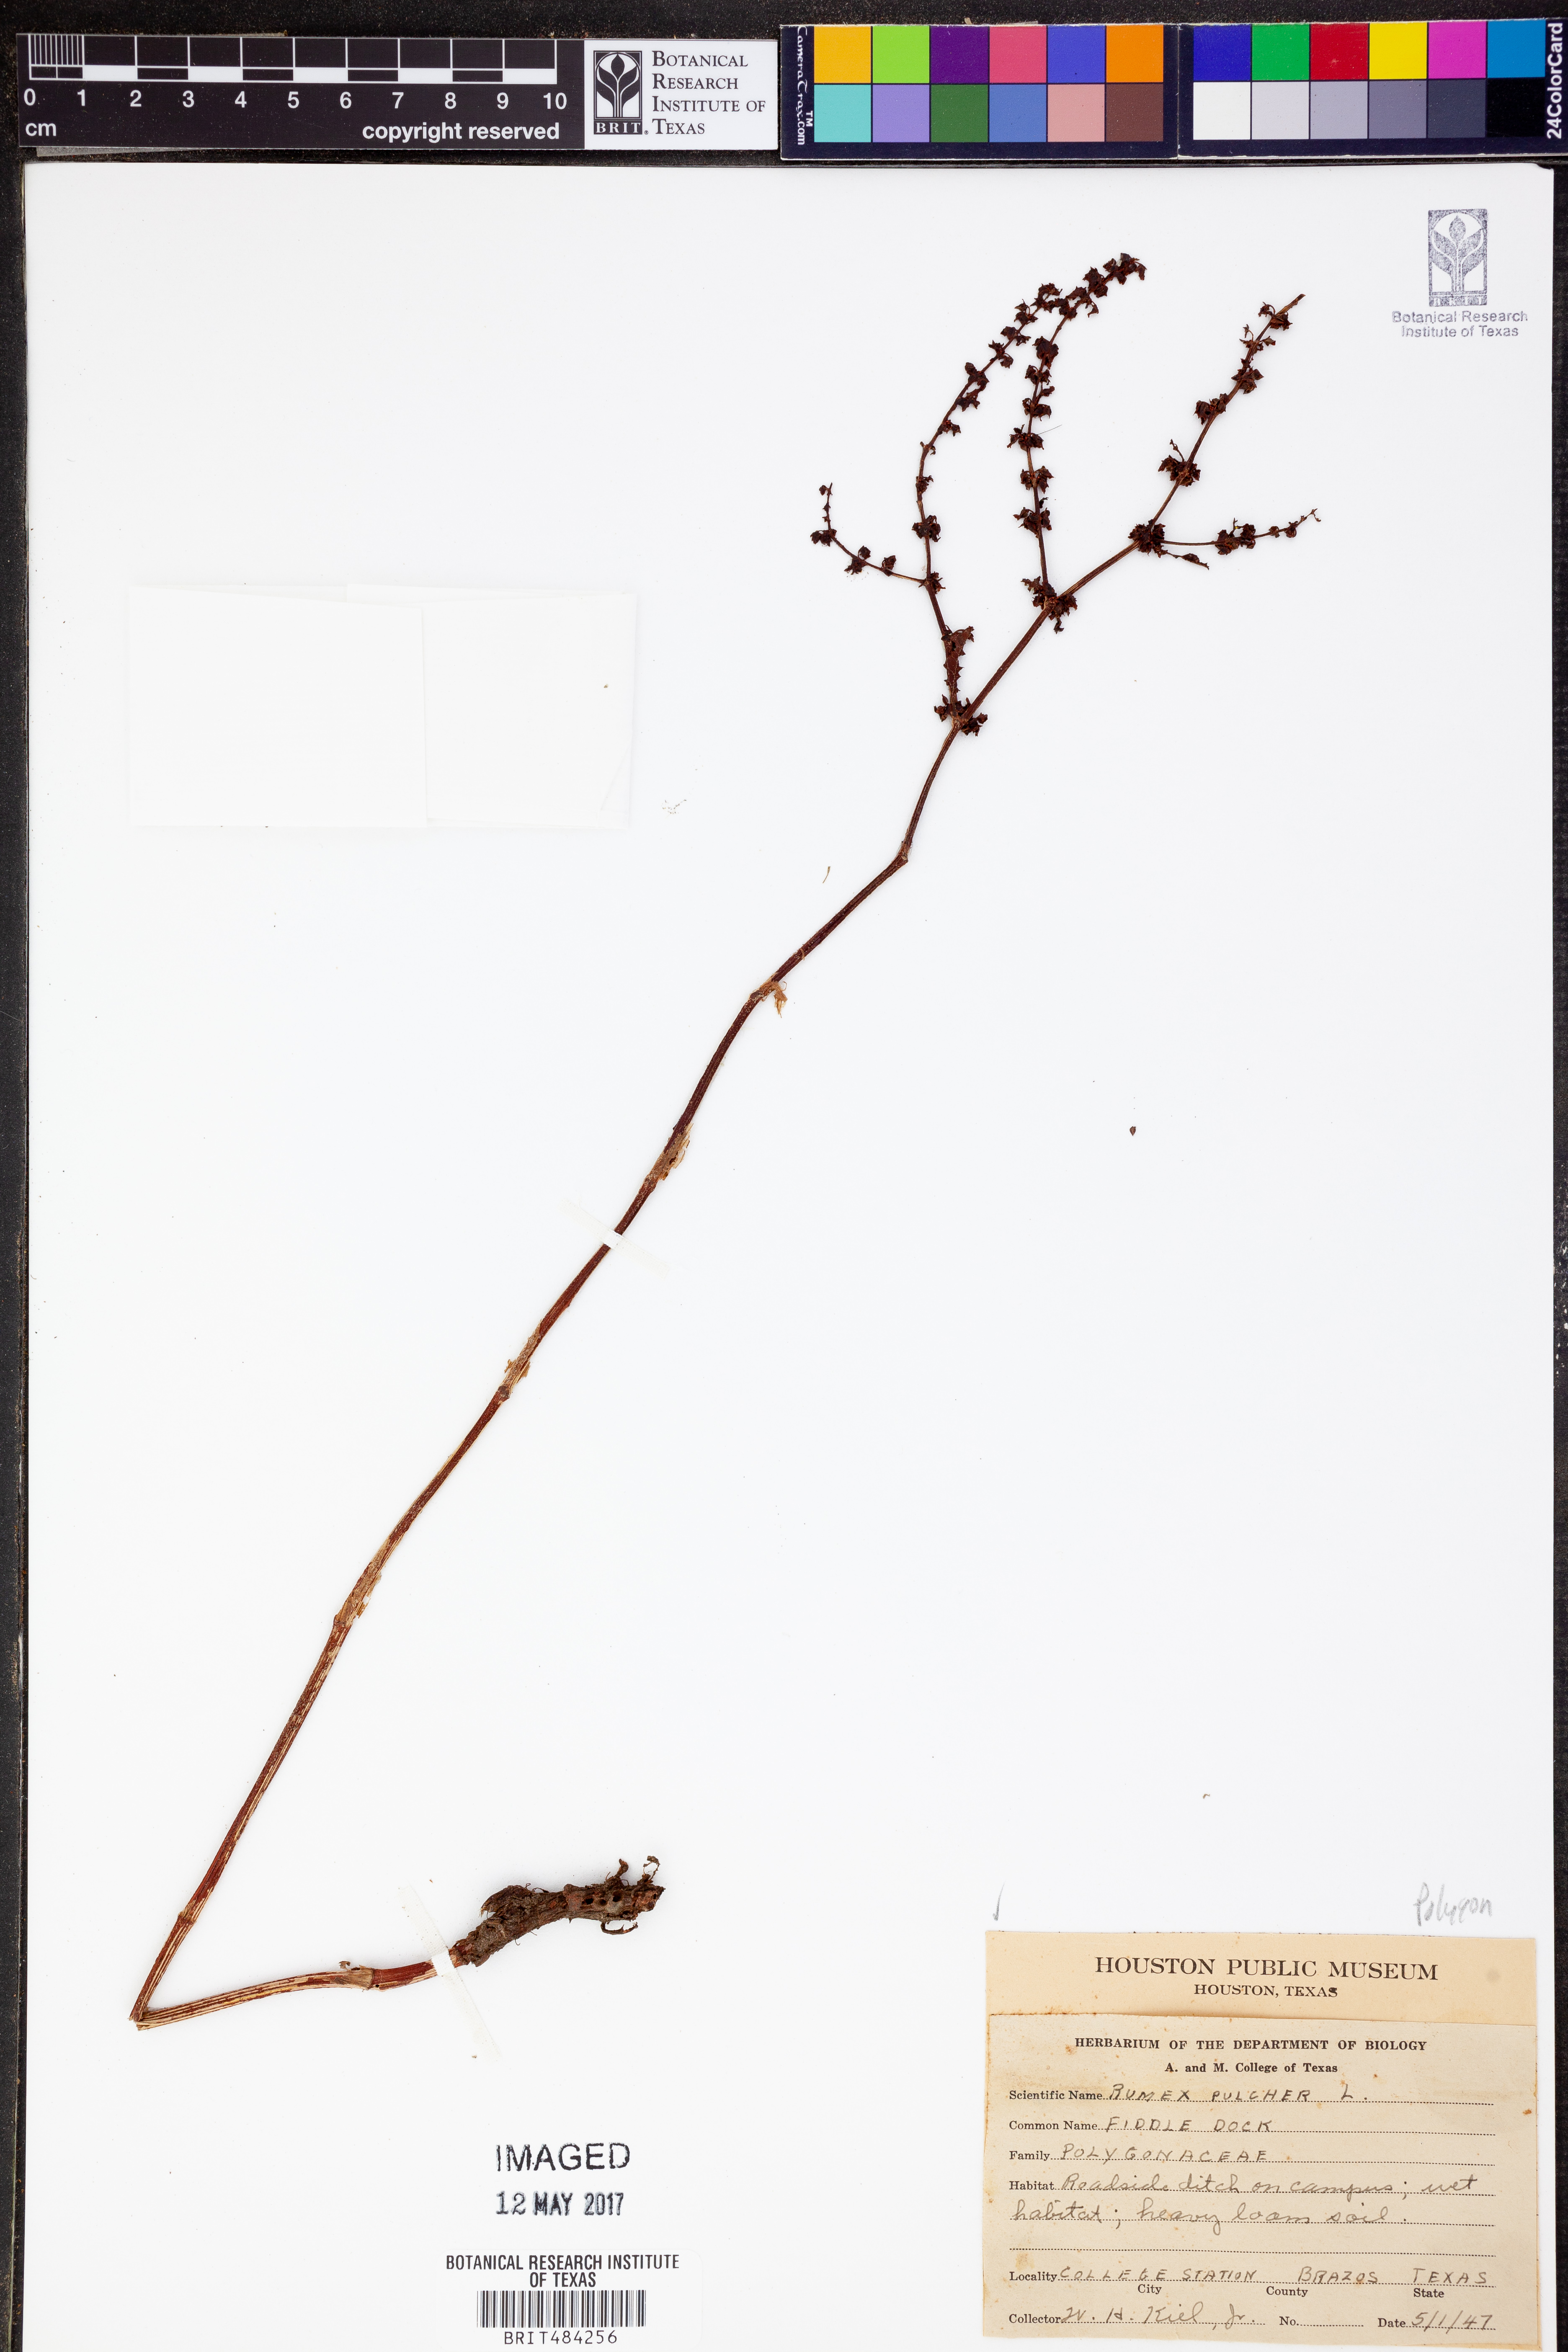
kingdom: Plantae
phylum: Tracheophyta
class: Magnoliopsida
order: Caryophyllales
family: Polygonaceae
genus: Rumex
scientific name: Rumex pulcher
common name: Fiddle dock
